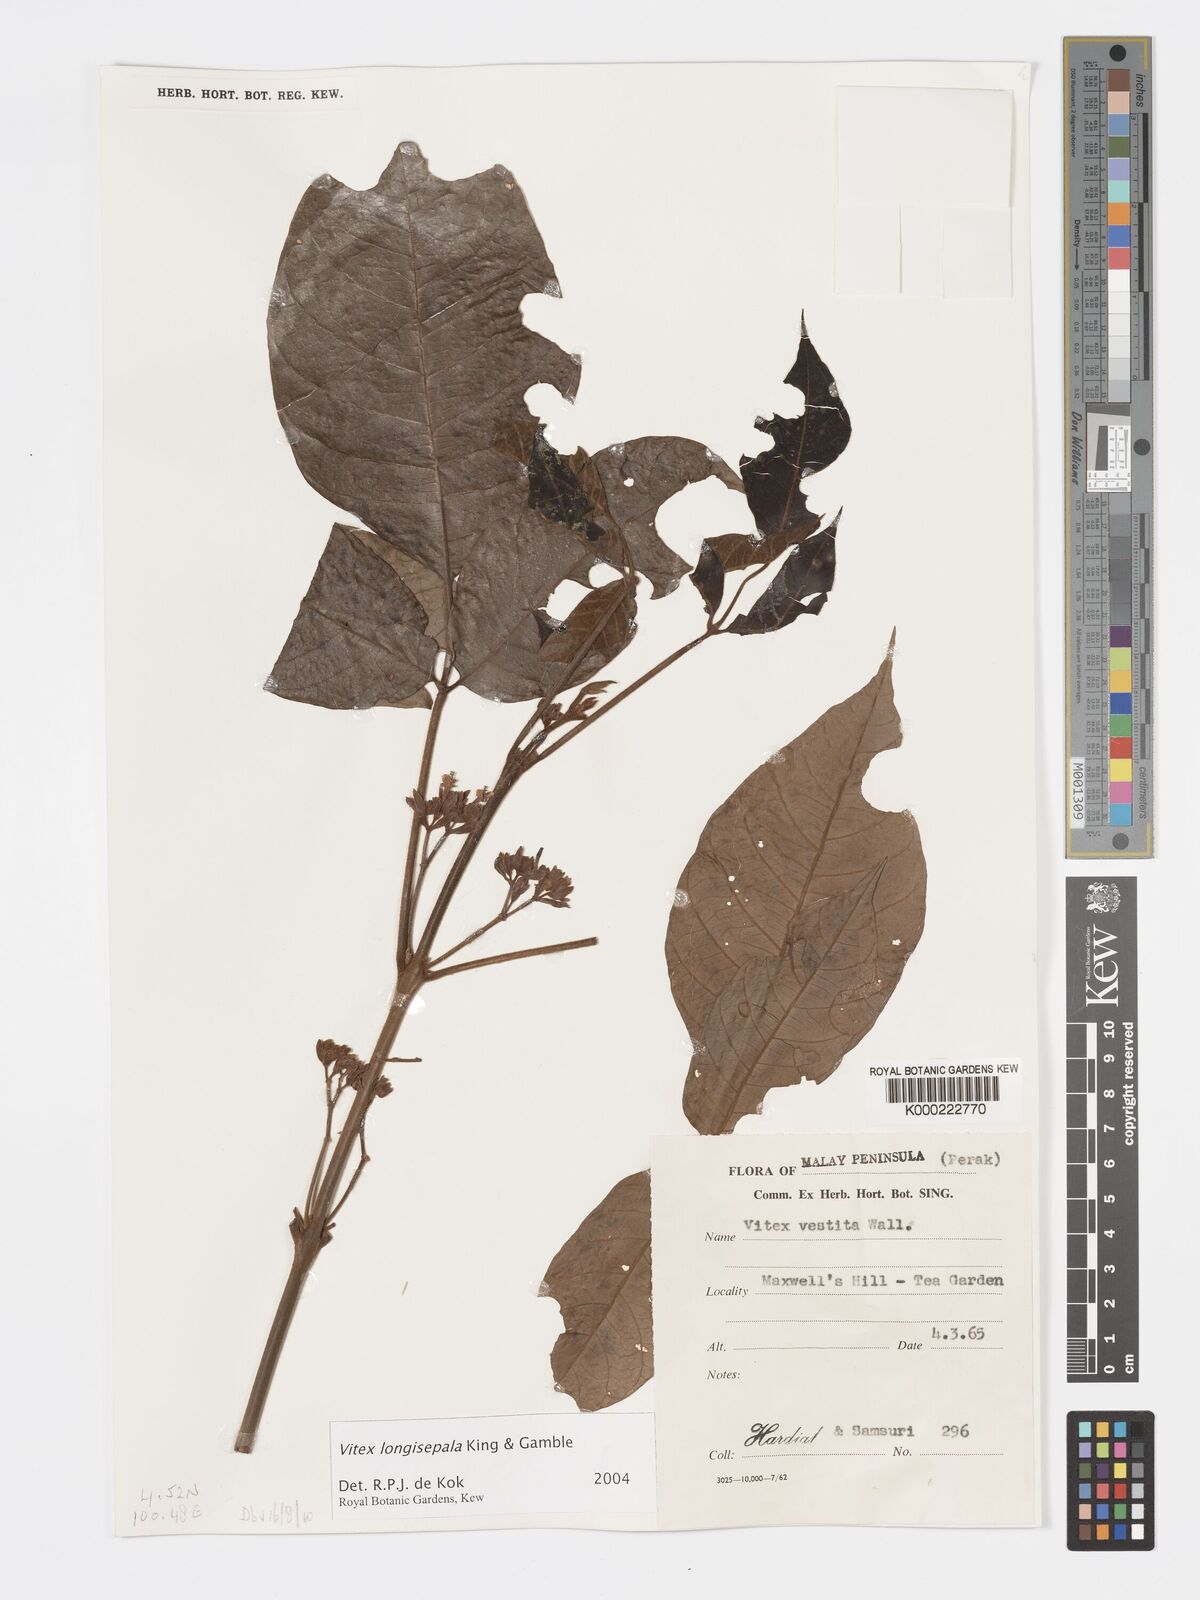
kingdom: Plantae
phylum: Tracheophyta
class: Magnoliopsida
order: Lamiales
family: Lamiaceae
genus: Vitex
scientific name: Vitex longisepala
